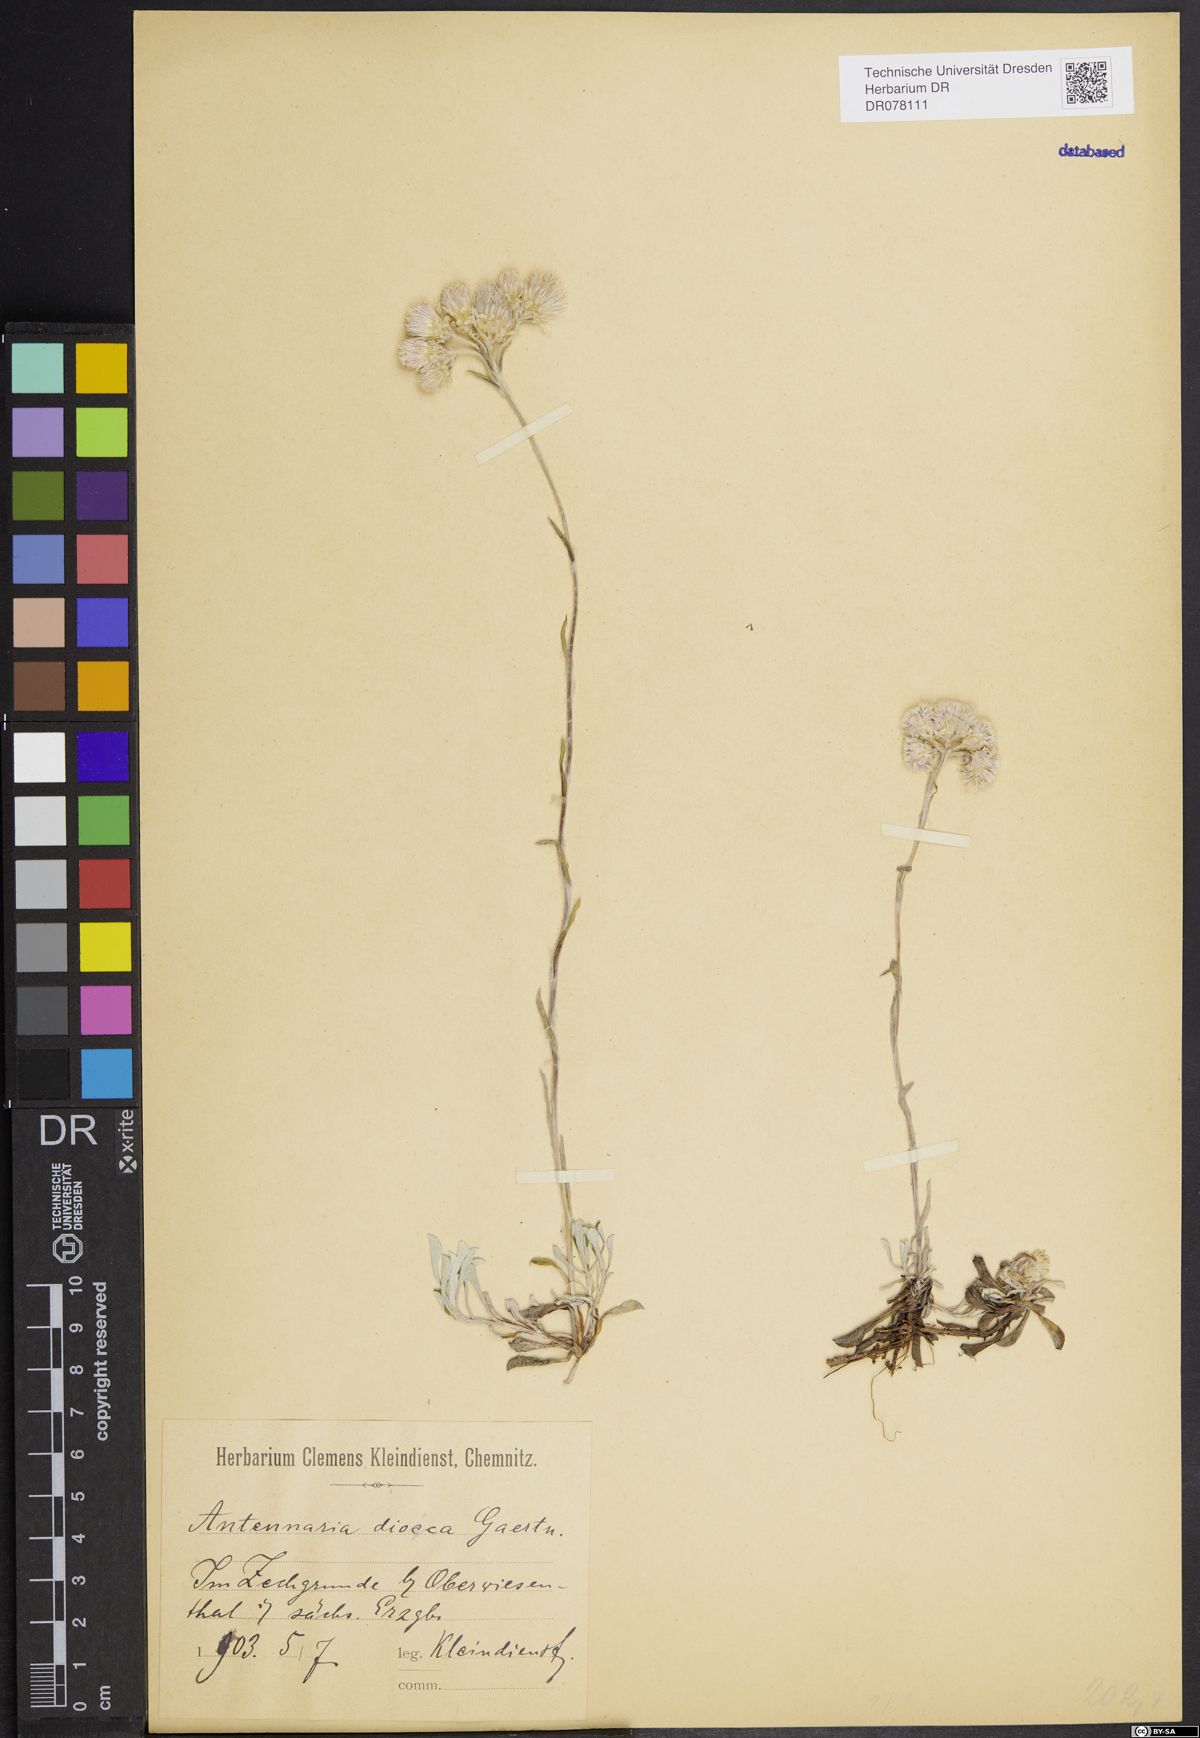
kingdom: Plantae
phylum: Tracheophyta
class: Magnoliopsida
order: Asterales
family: Asteraceae
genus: Antennaria
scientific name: Antennaria dioica
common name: Mountain everlasting
